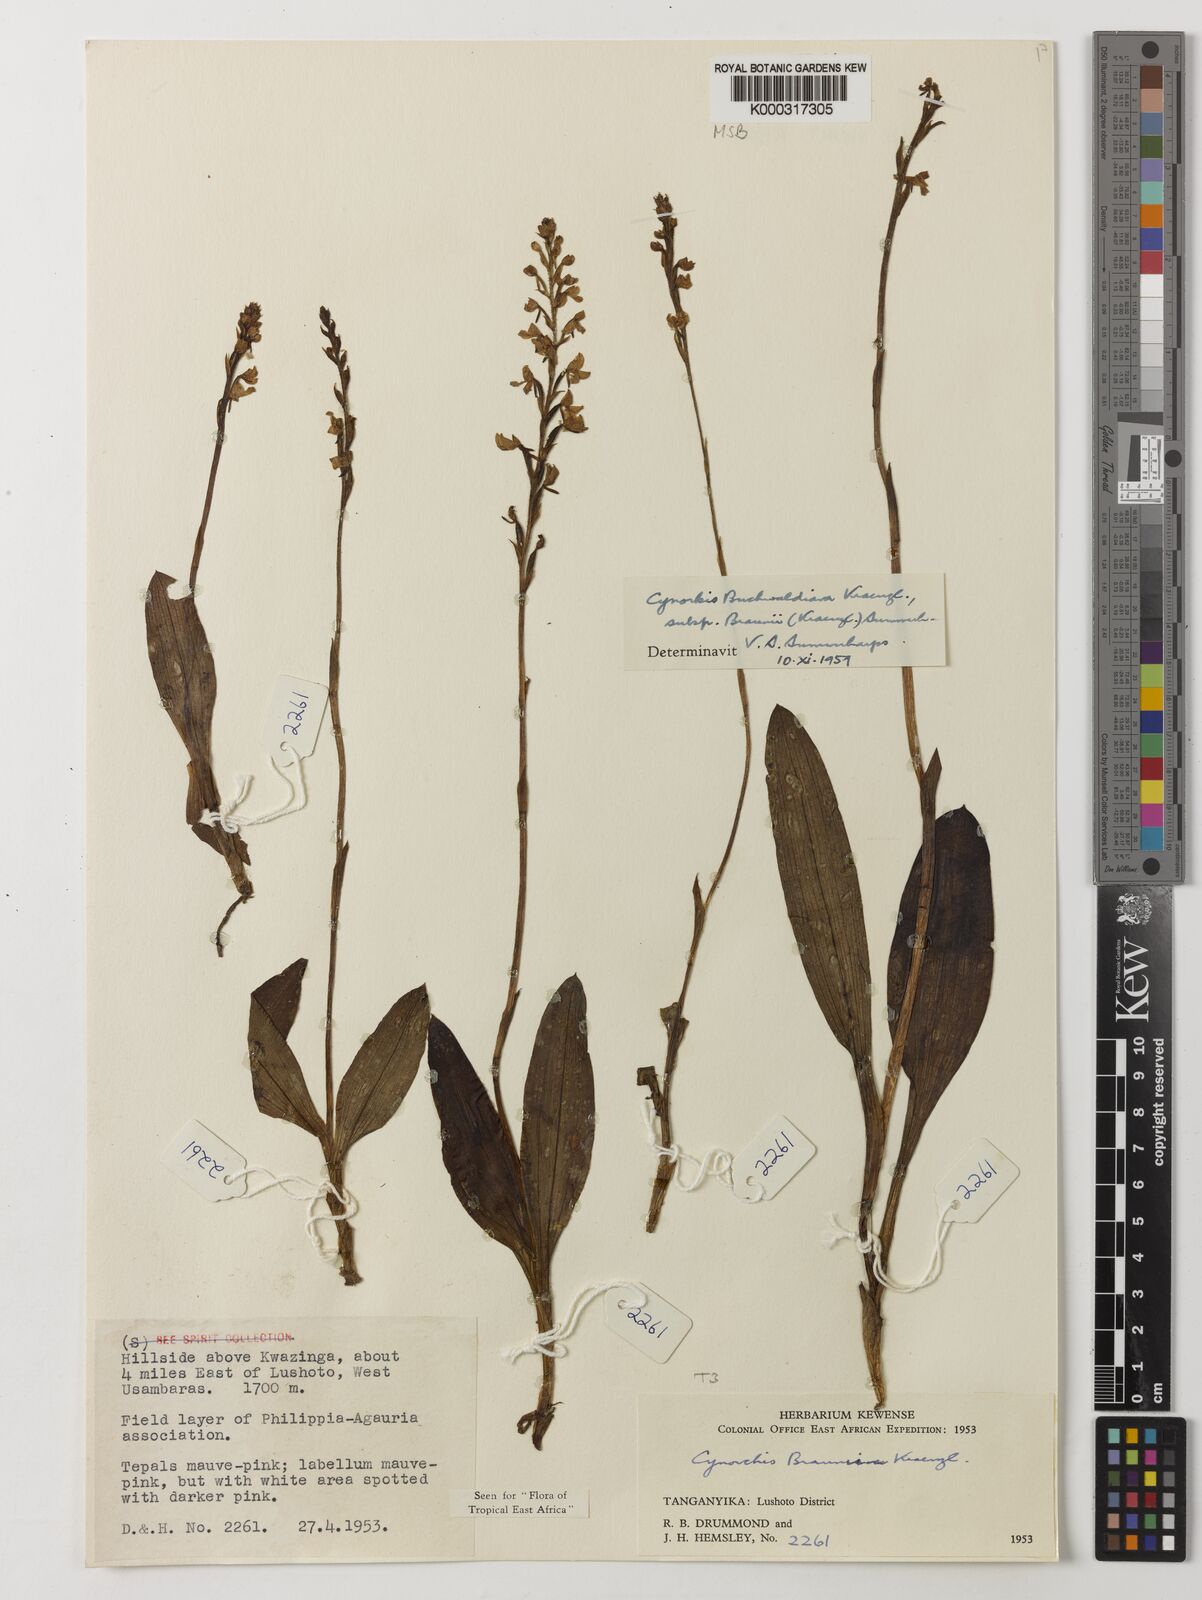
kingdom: Plantae
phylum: Tracheophyta
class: Liliopsida
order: Asparagales
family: Orchidaceae
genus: Cynorkis
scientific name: Cynorkis buchwaldiana
